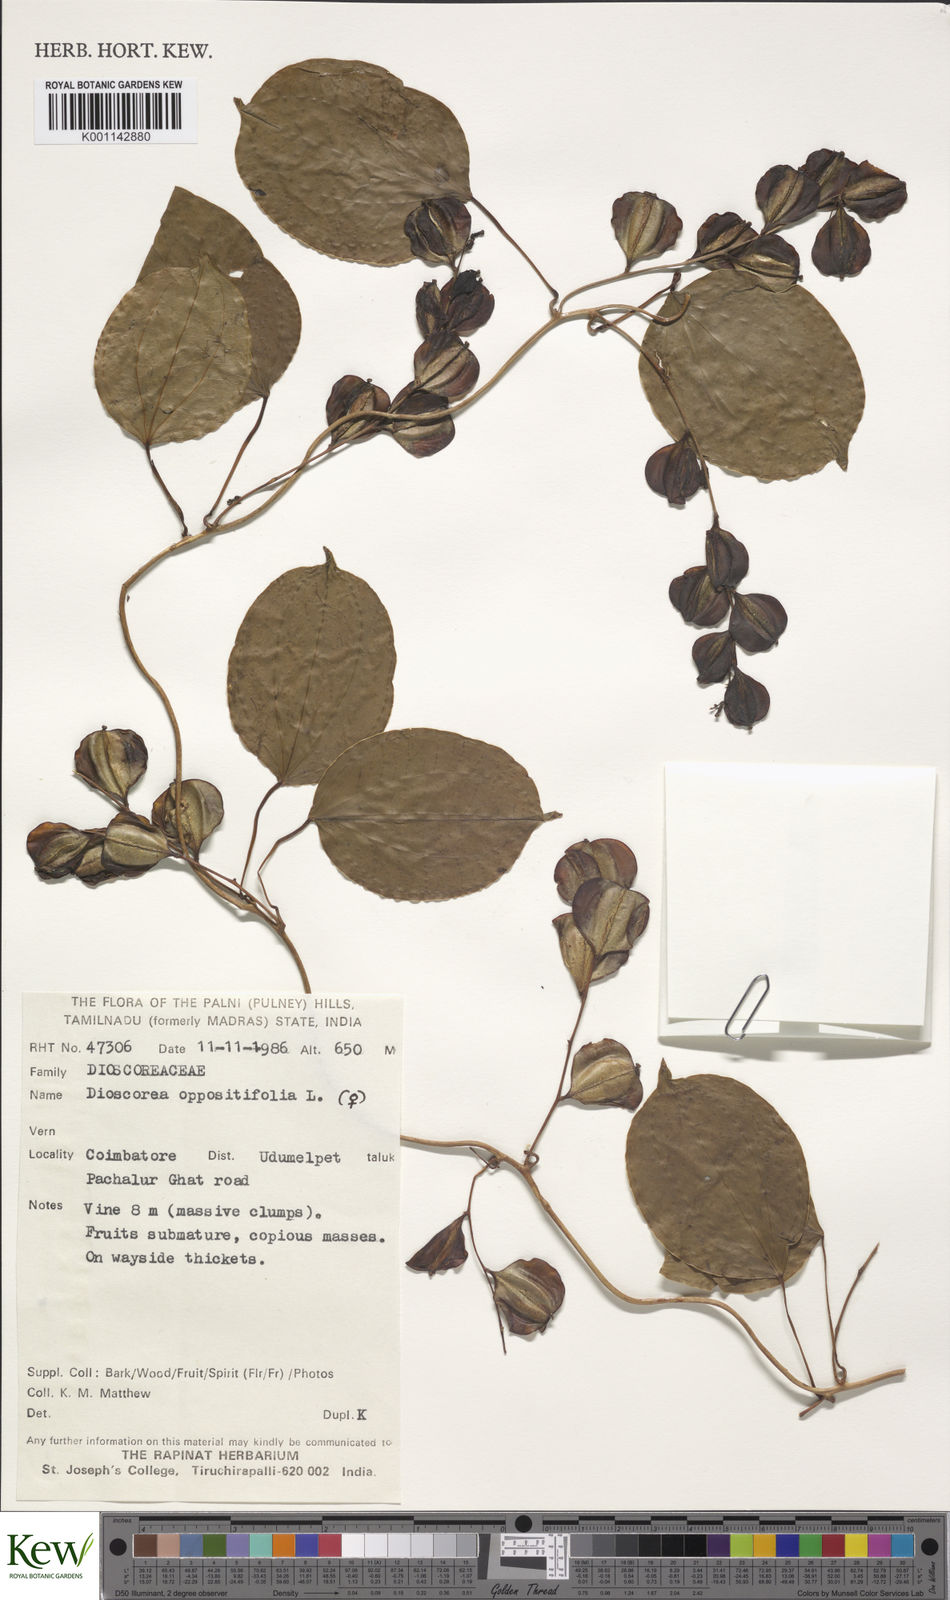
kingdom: Plantae
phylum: Tracheophyta
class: Liliopsida
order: Dioscoreales
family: Dioscoreaceae
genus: Dioscorea
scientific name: Dioscorea oppositifolia
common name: Chinese yam
